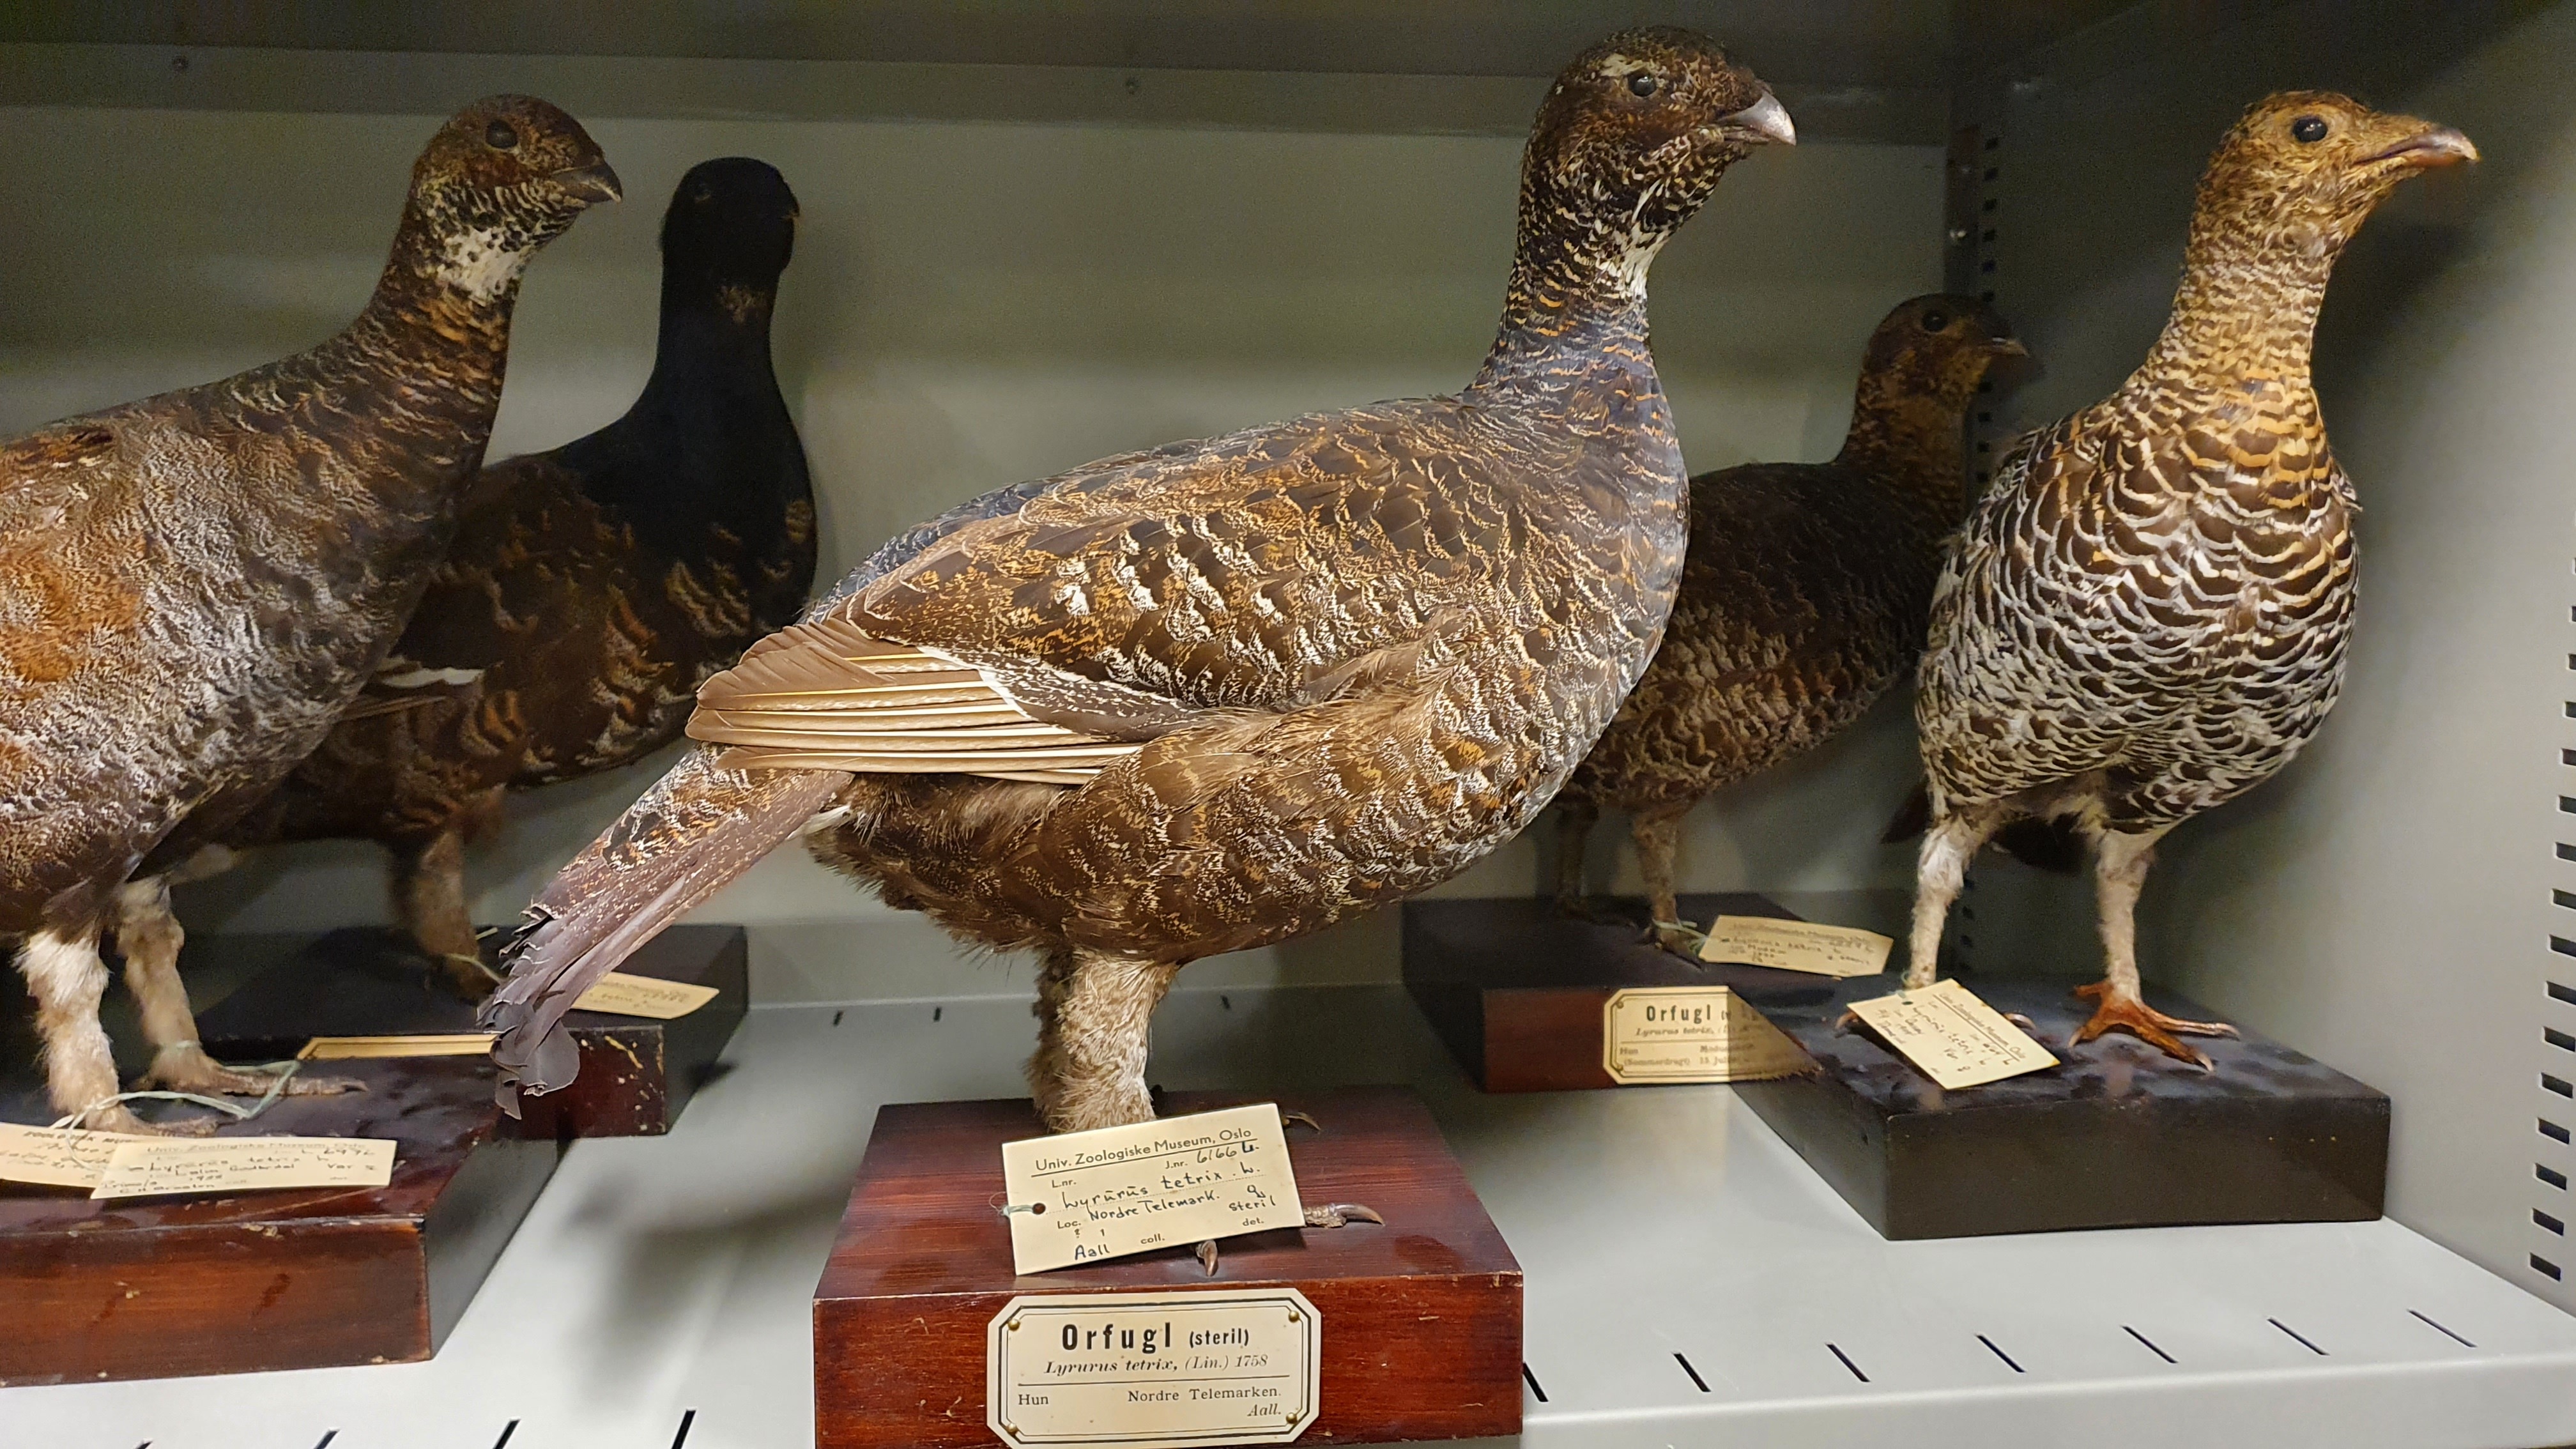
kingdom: Animalia
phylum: Chordata
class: Aves
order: Galliformes
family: Phasianidae
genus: Lyrurus
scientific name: Lyrurus tetrix
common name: Black grouse
